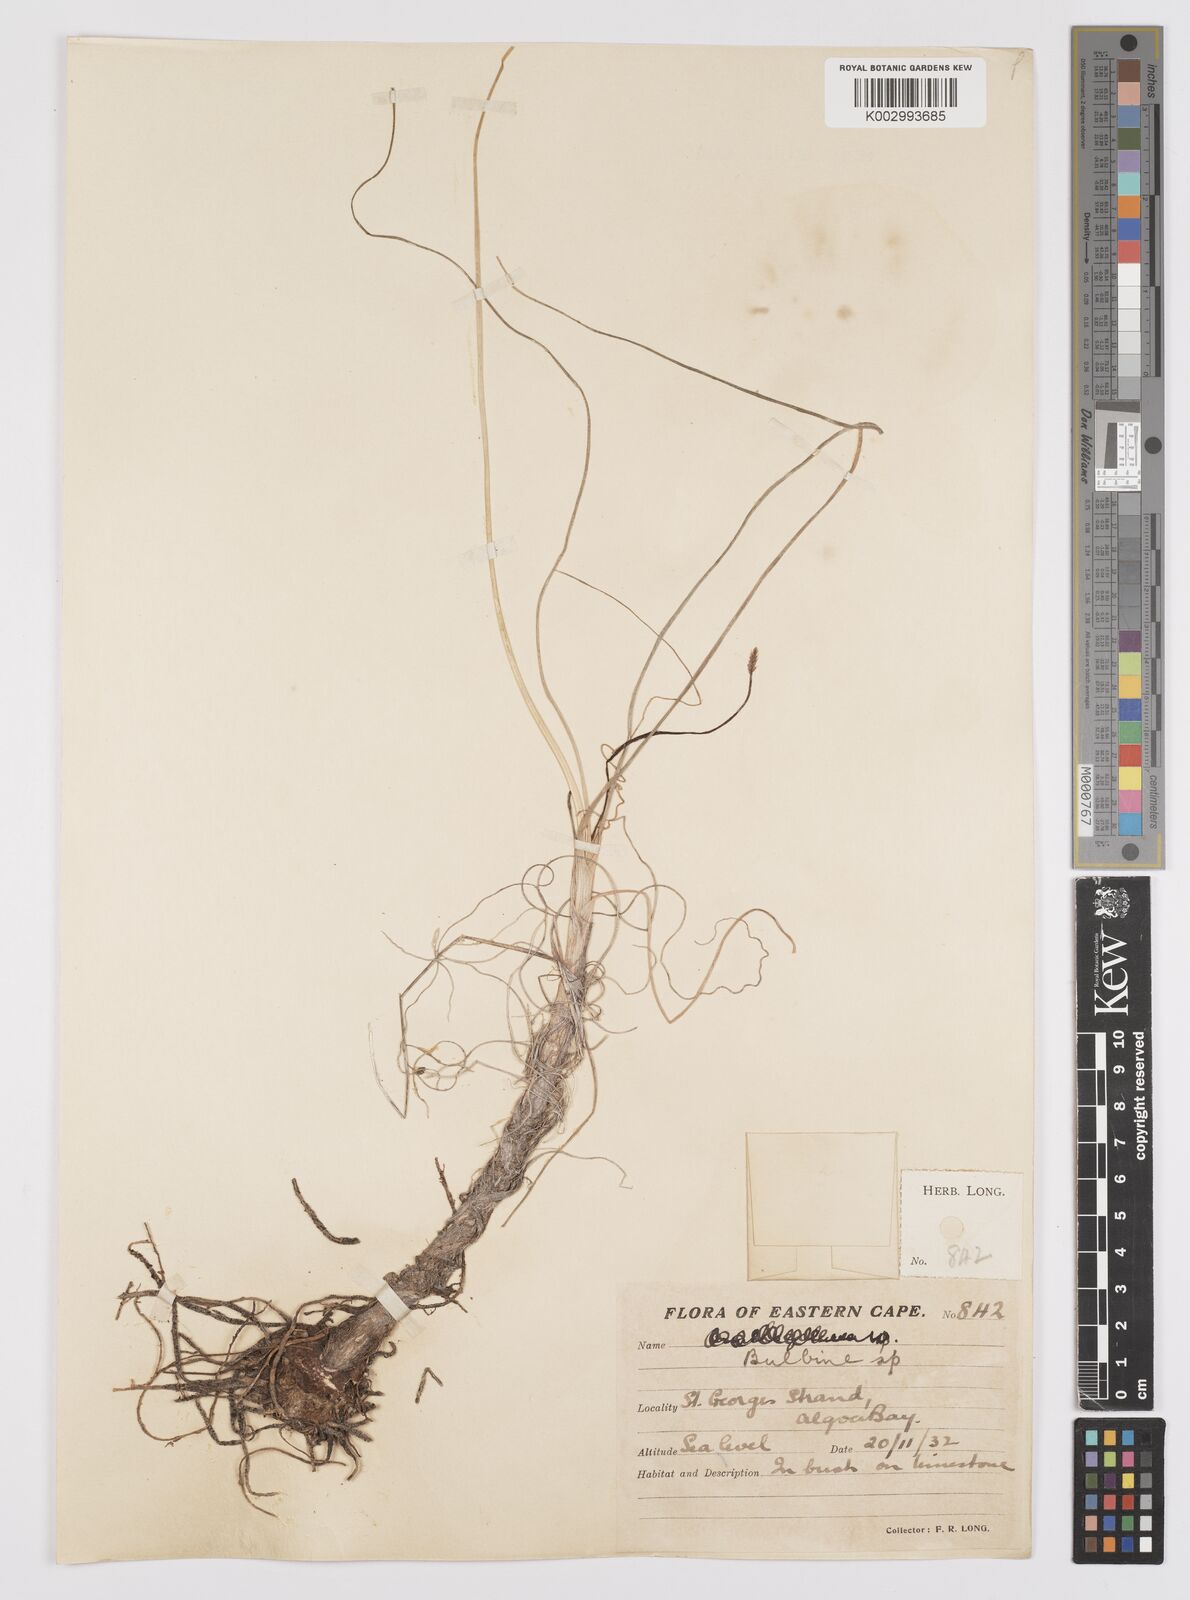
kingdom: Plantae
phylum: Tracheophyta
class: Liliopsida
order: Asparagales
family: Asphodelaceae
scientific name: Asphodelaceae
